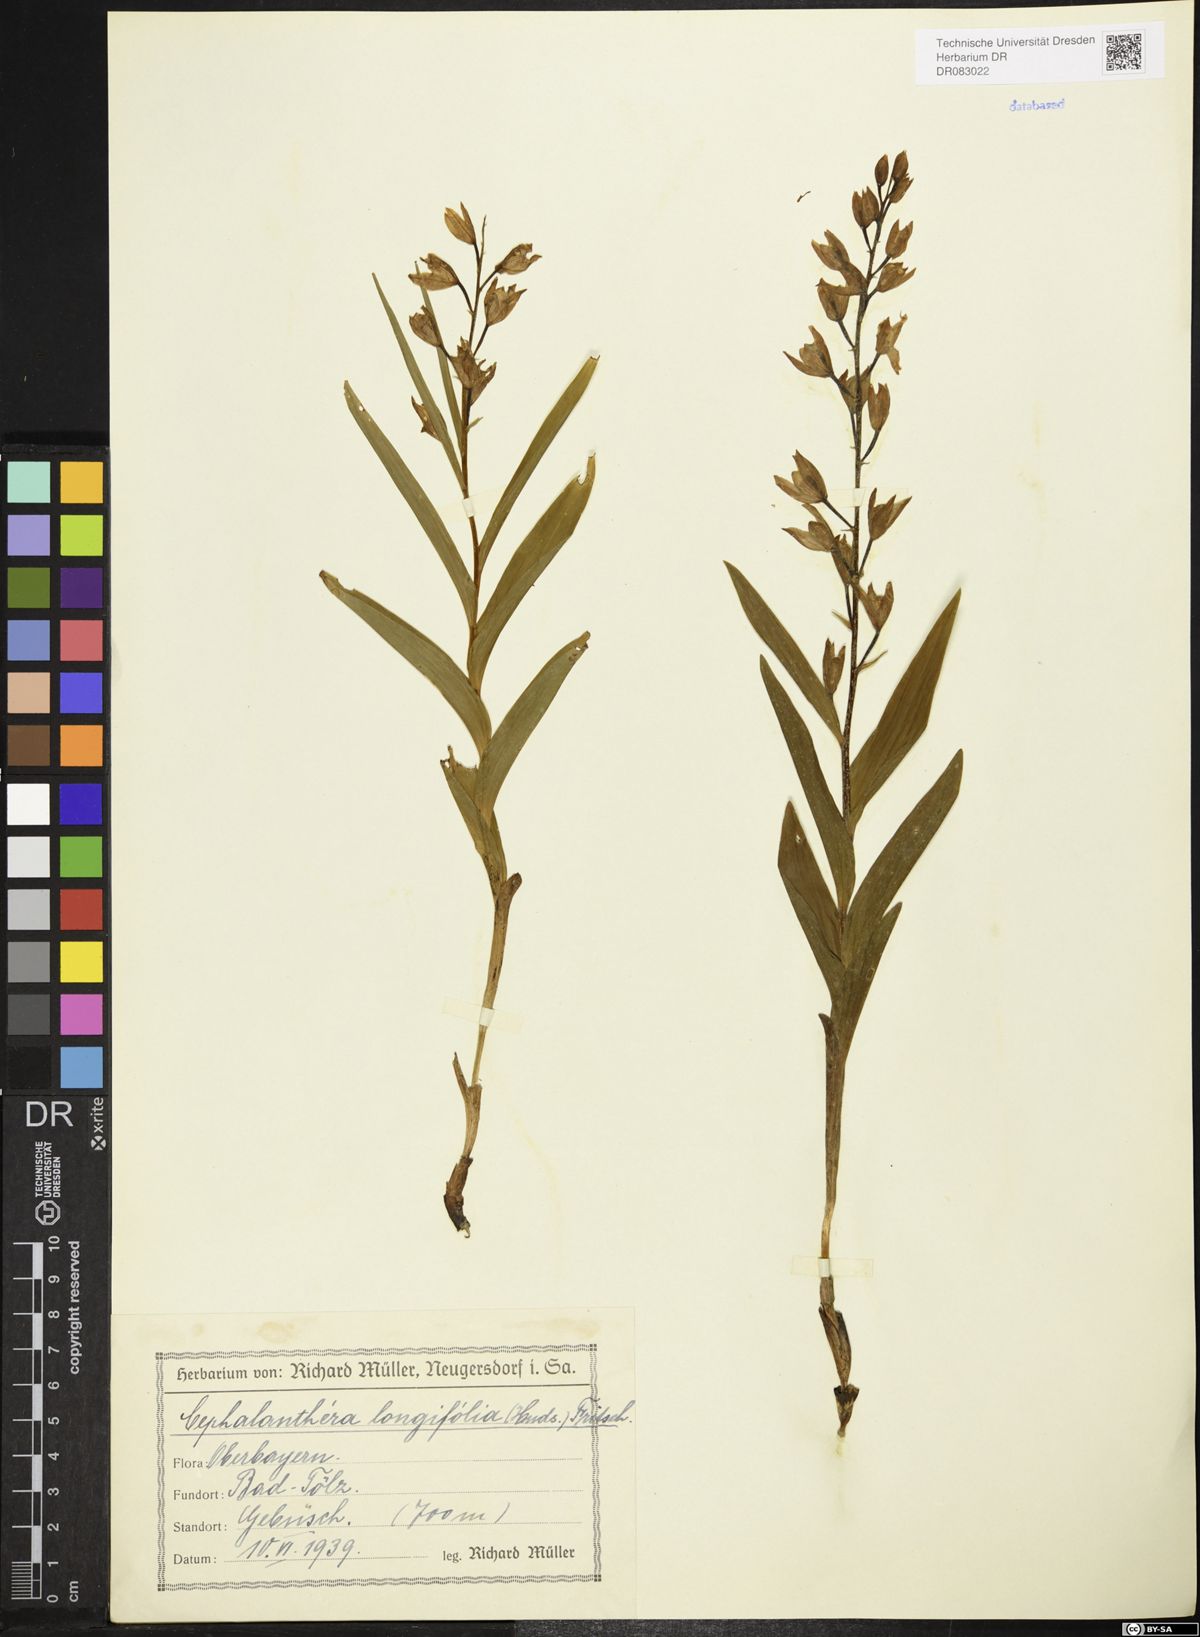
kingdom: Plantae
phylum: Tracheophyta
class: Liliopsida
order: Asparagales
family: Orchidaceae
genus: Cephalanthera
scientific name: Cephalanthera longifolia
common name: Narrow-leaved helleborine
